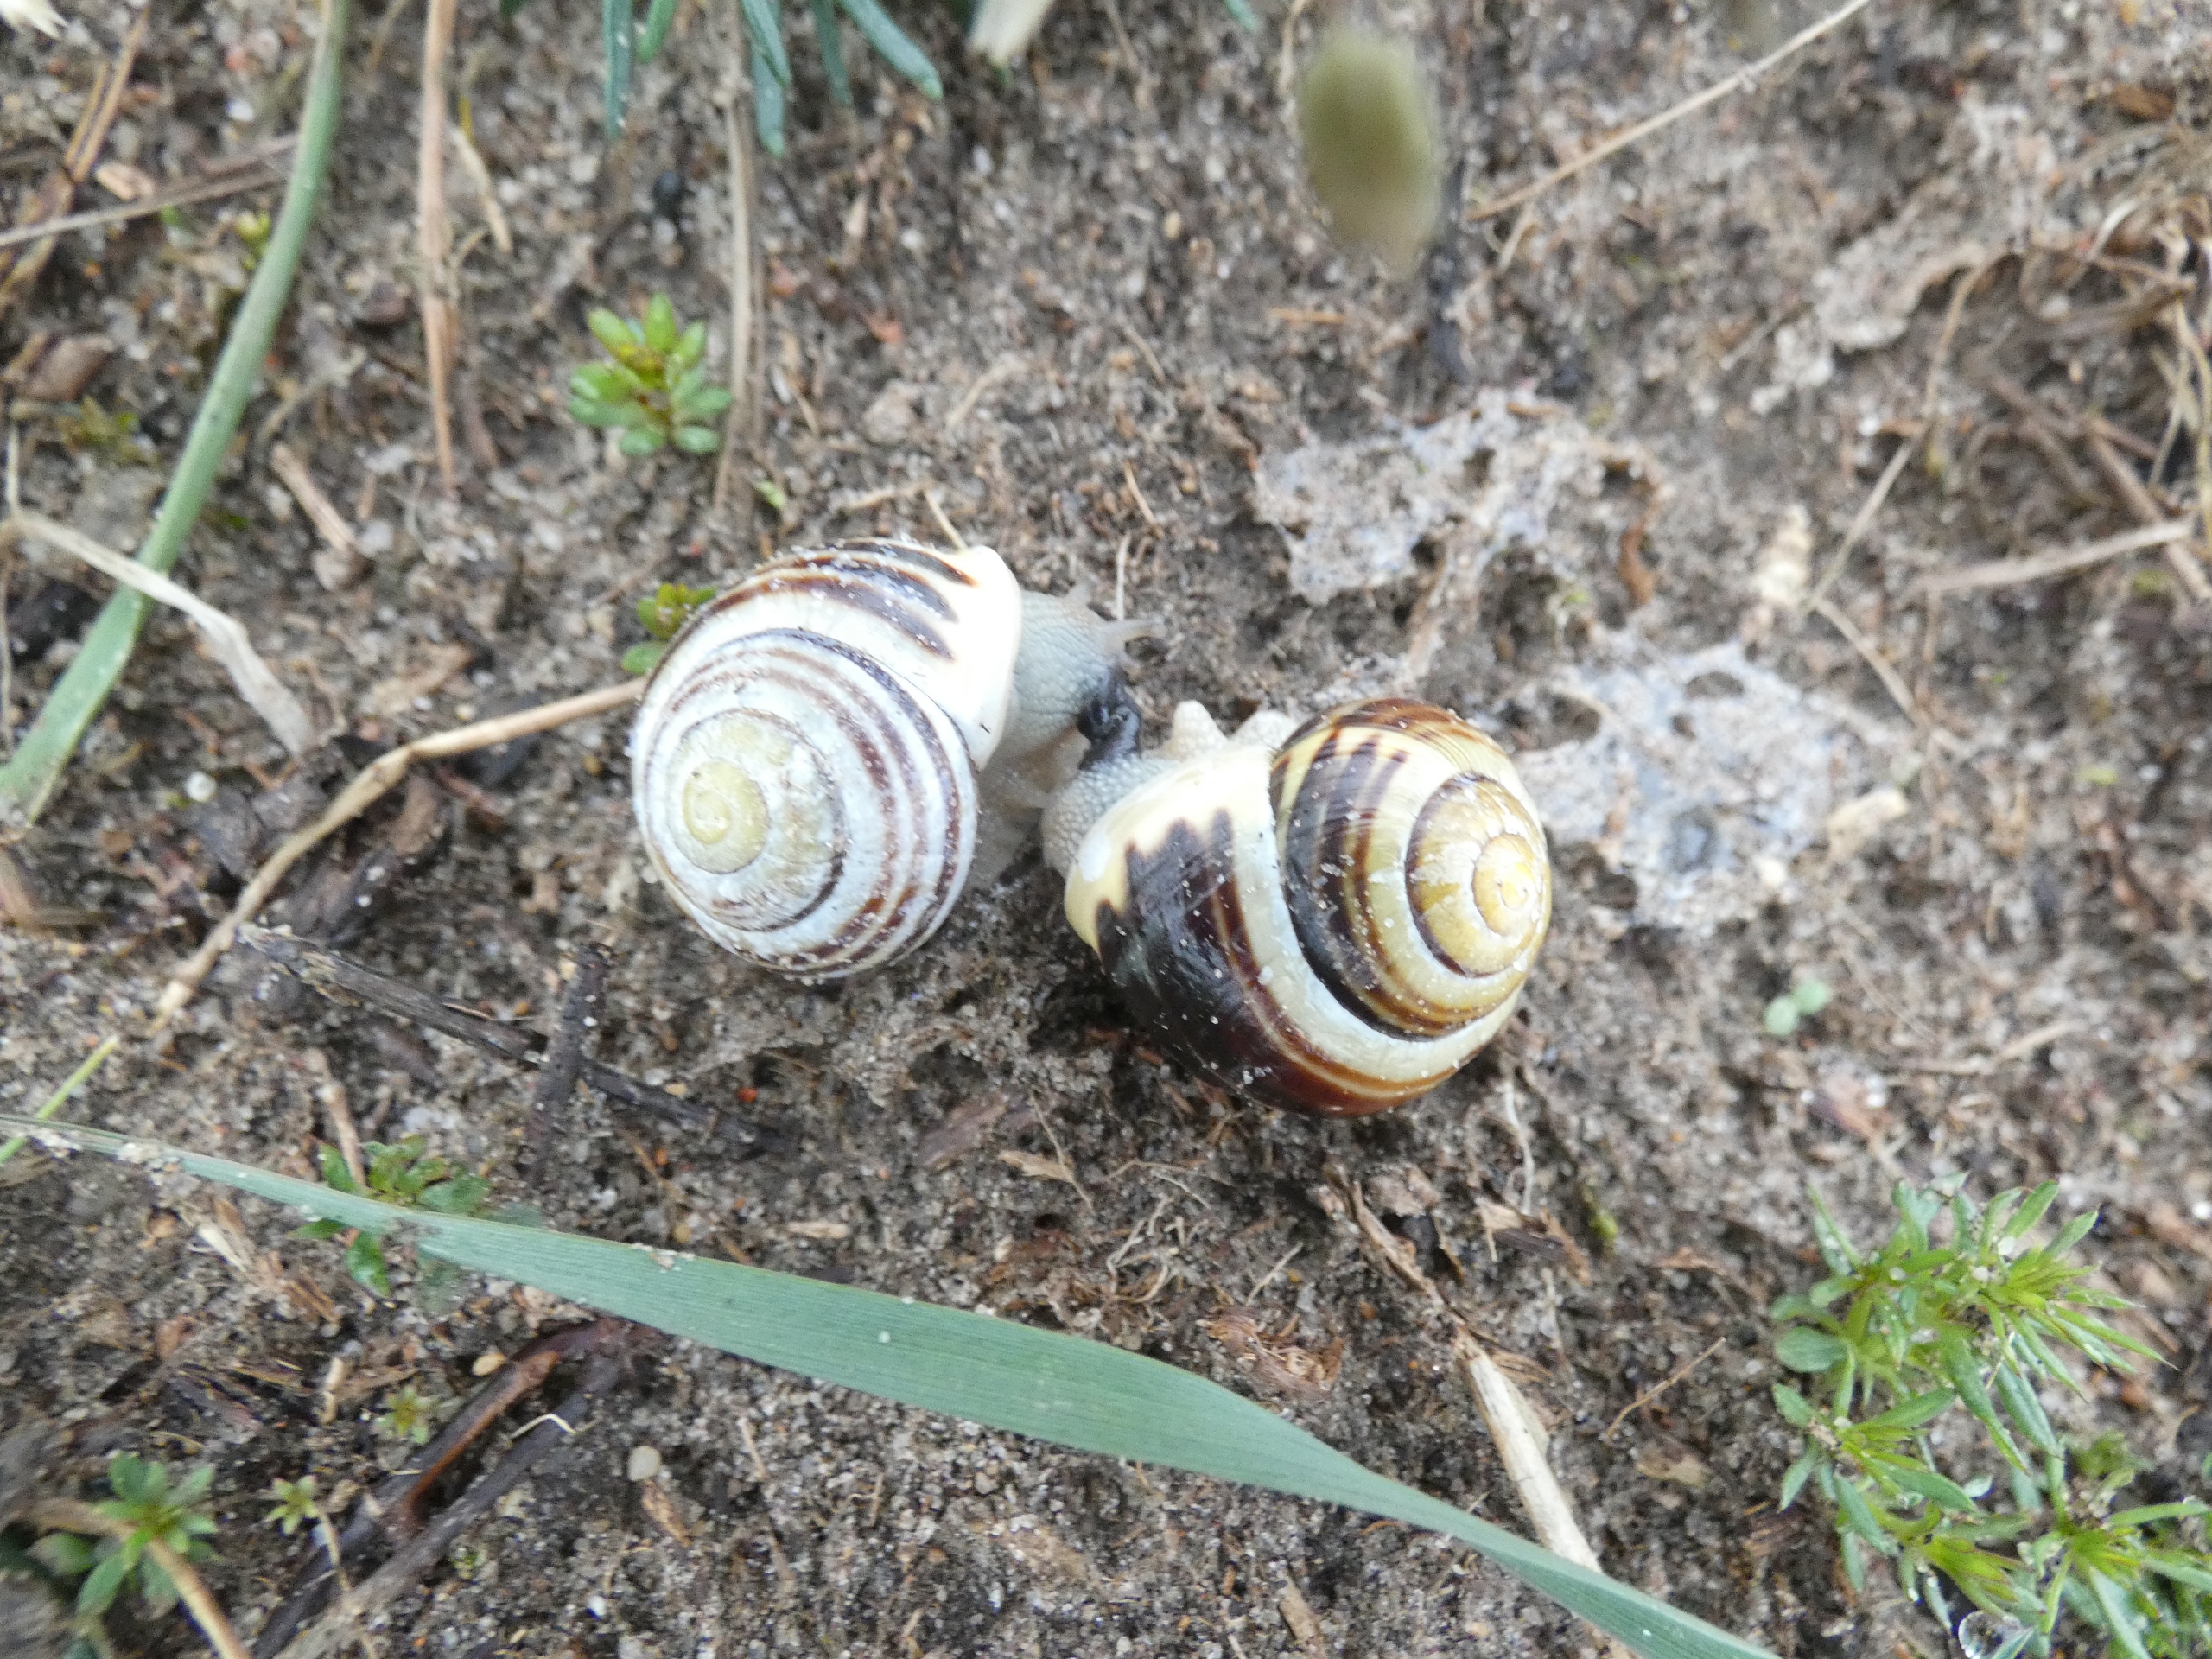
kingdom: Animalia
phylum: Mollusca
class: Gastropoda
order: Stylommatophora
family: Helicidae
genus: Cepaea
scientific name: Cepaea hortensis
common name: Havesnegl
